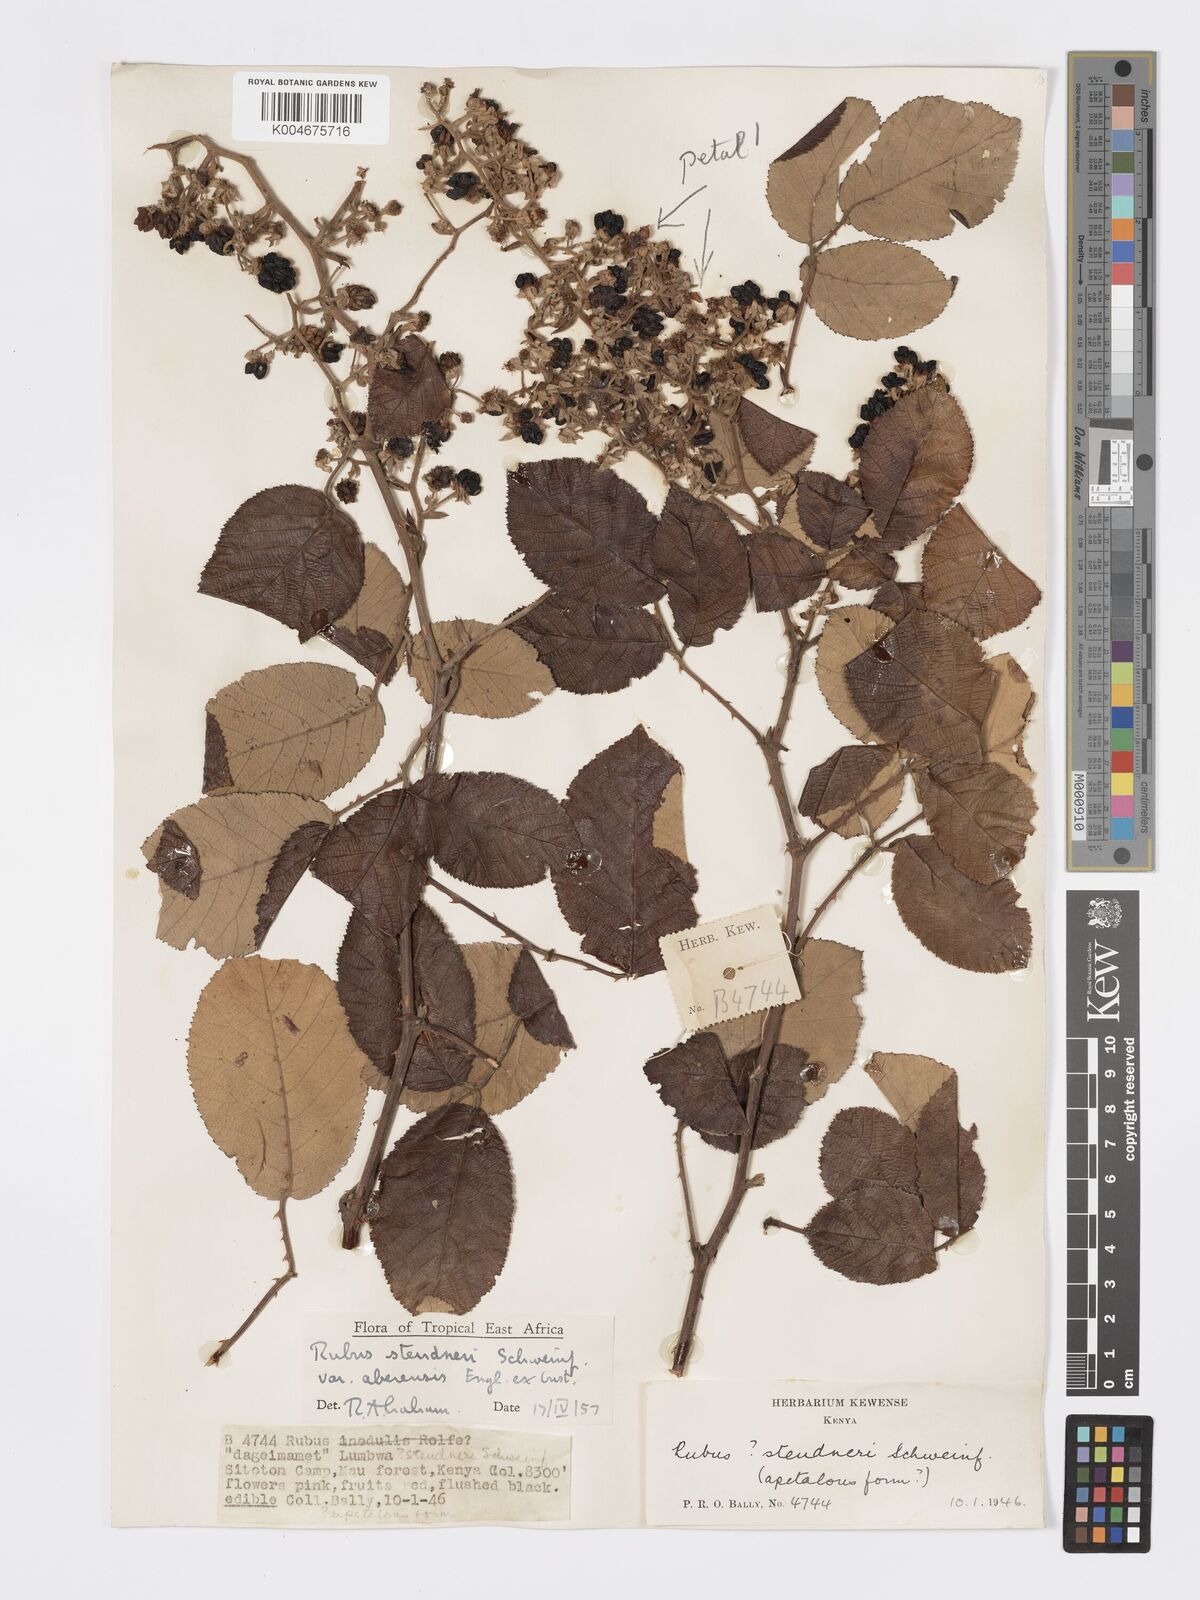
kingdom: Plantae
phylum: Tracheophyta
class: Magnoliopsida
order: Rosales
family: Rosaceae
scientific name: Rosaceae
